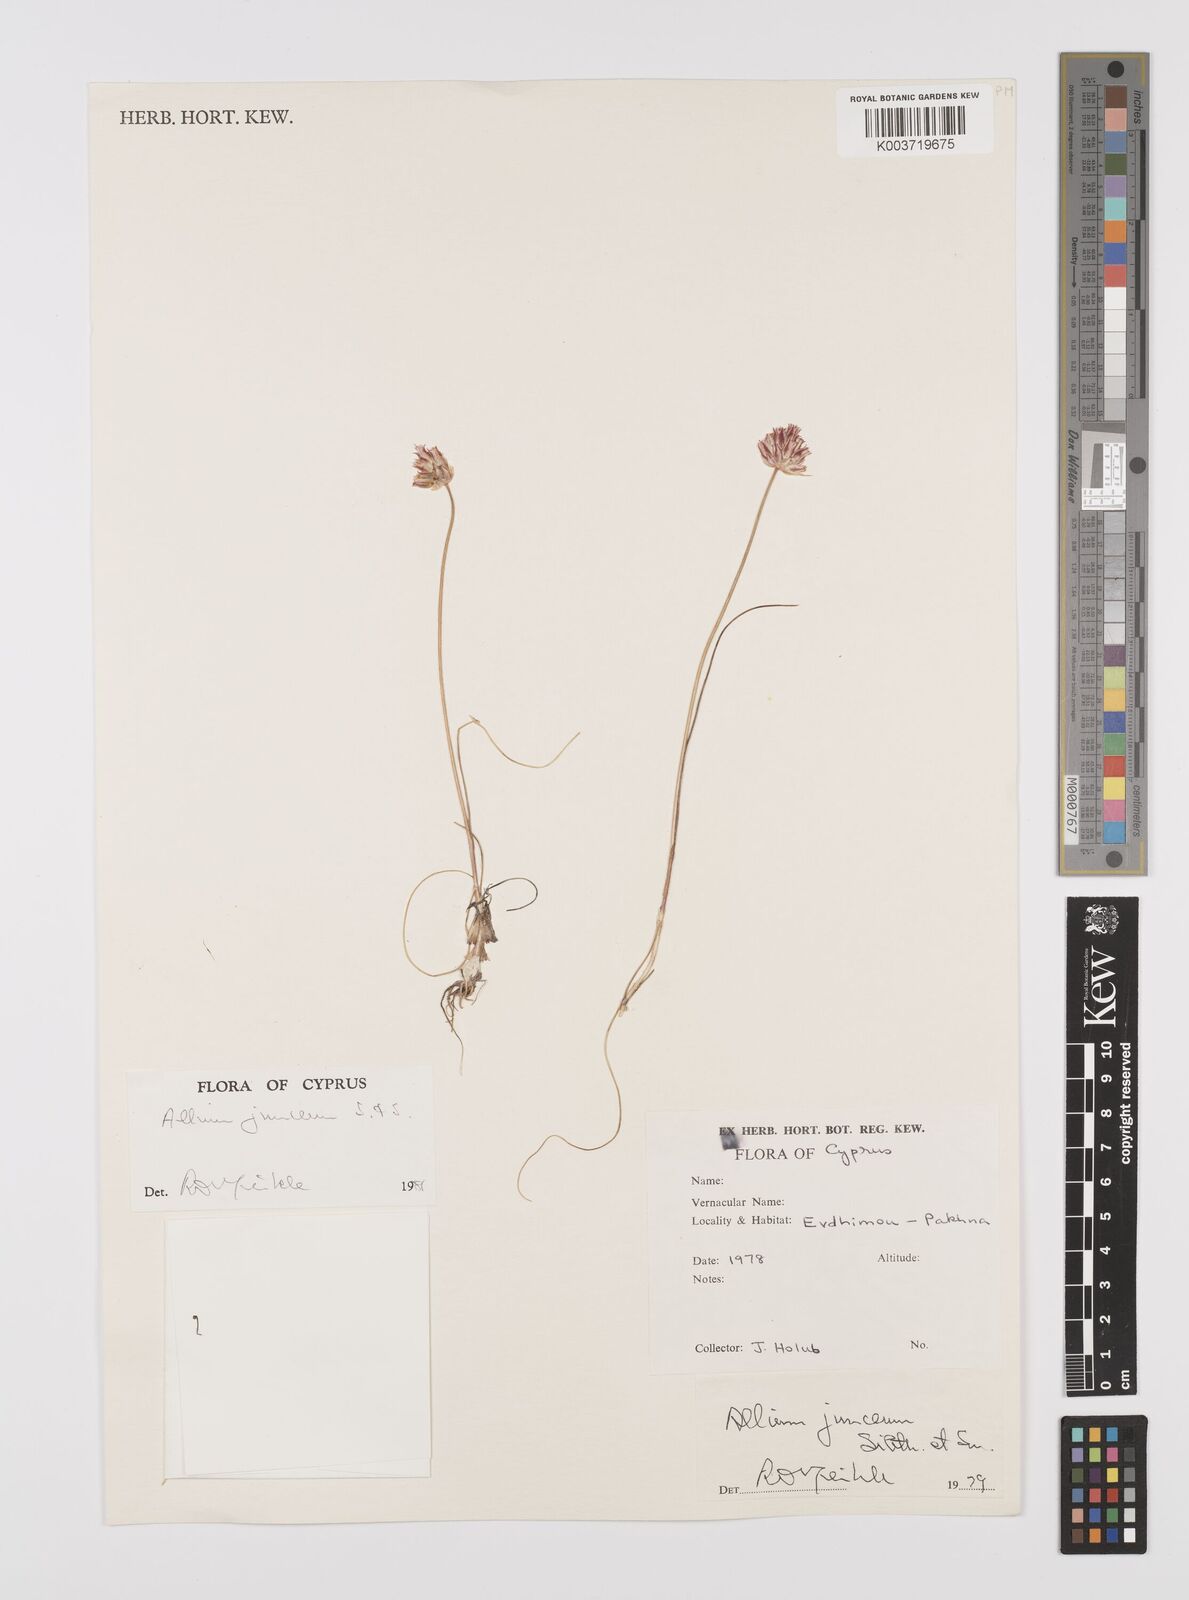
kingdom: Plantae
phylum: Tracheophyta
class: Liliopsida
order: Asparagales
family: Amaryllidaceae
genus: Allium
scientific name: Allium junceum
